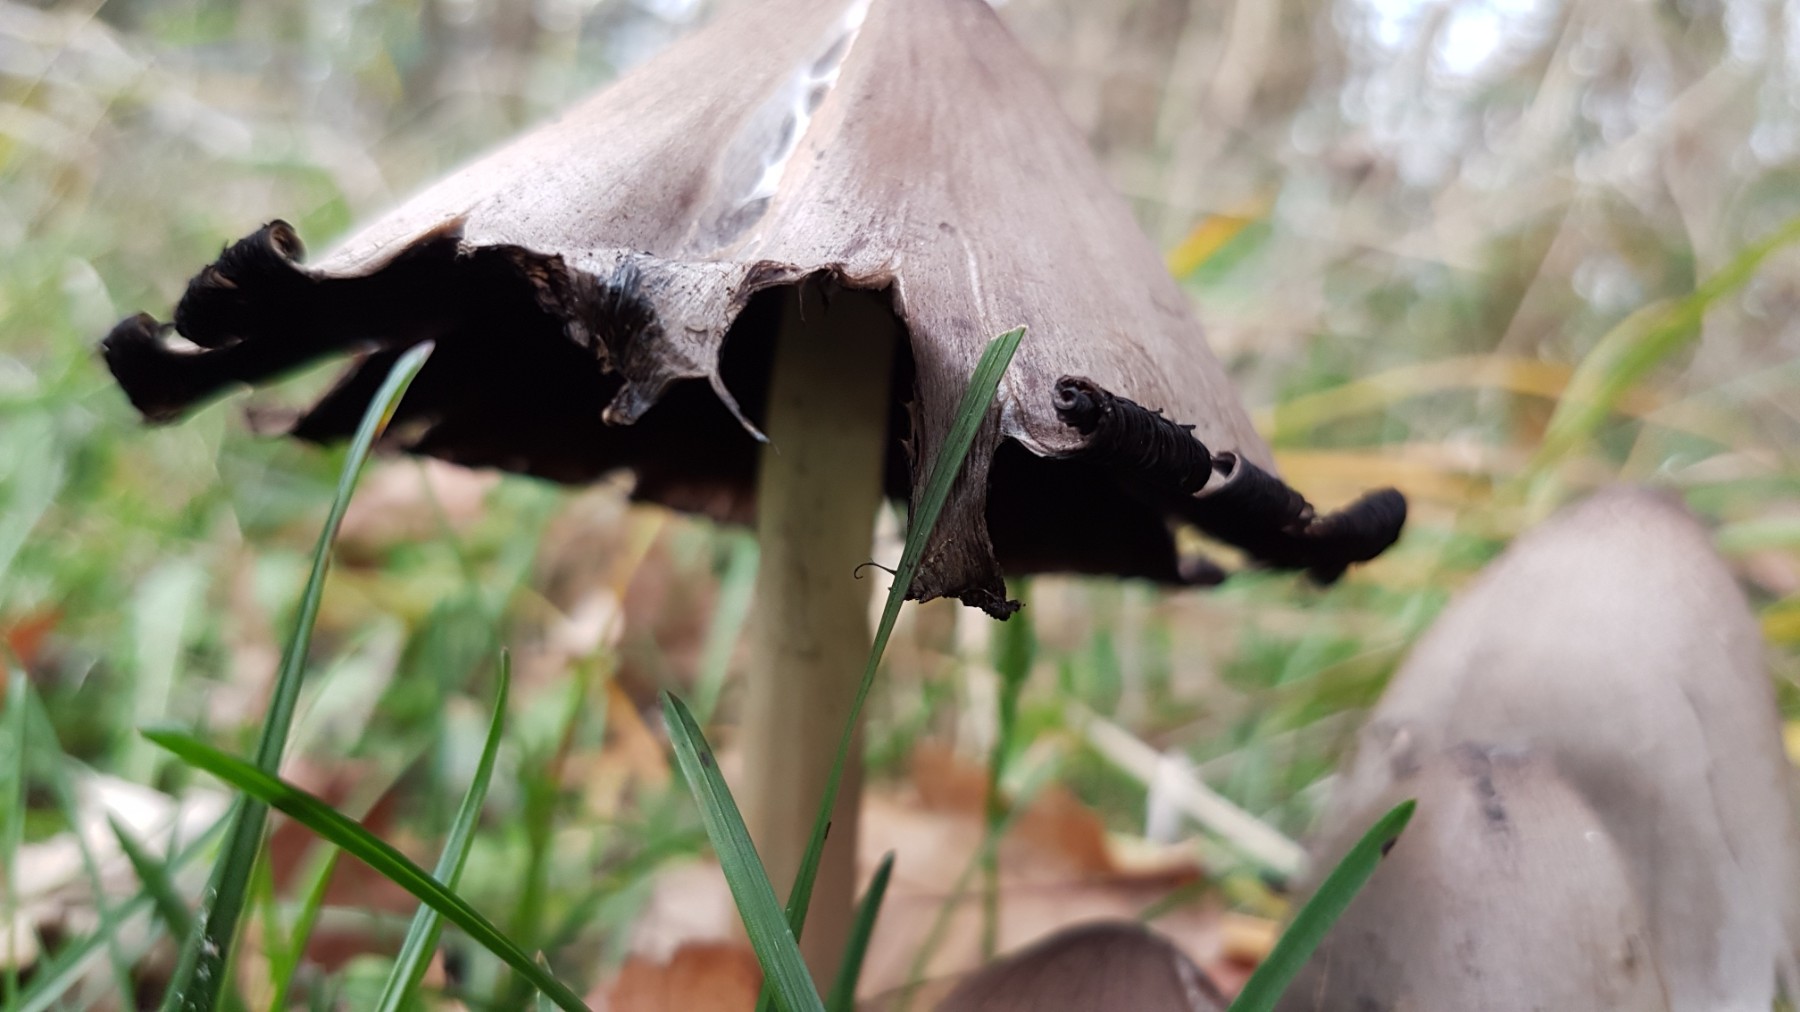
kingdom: Fungi
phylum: Basidiomycota
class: Agaricomycetes
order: Agaricales
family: Psathyrellaceae
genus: Coprinopsis
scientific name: Coprinopsis atramentaria
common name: almindelig blækhat
